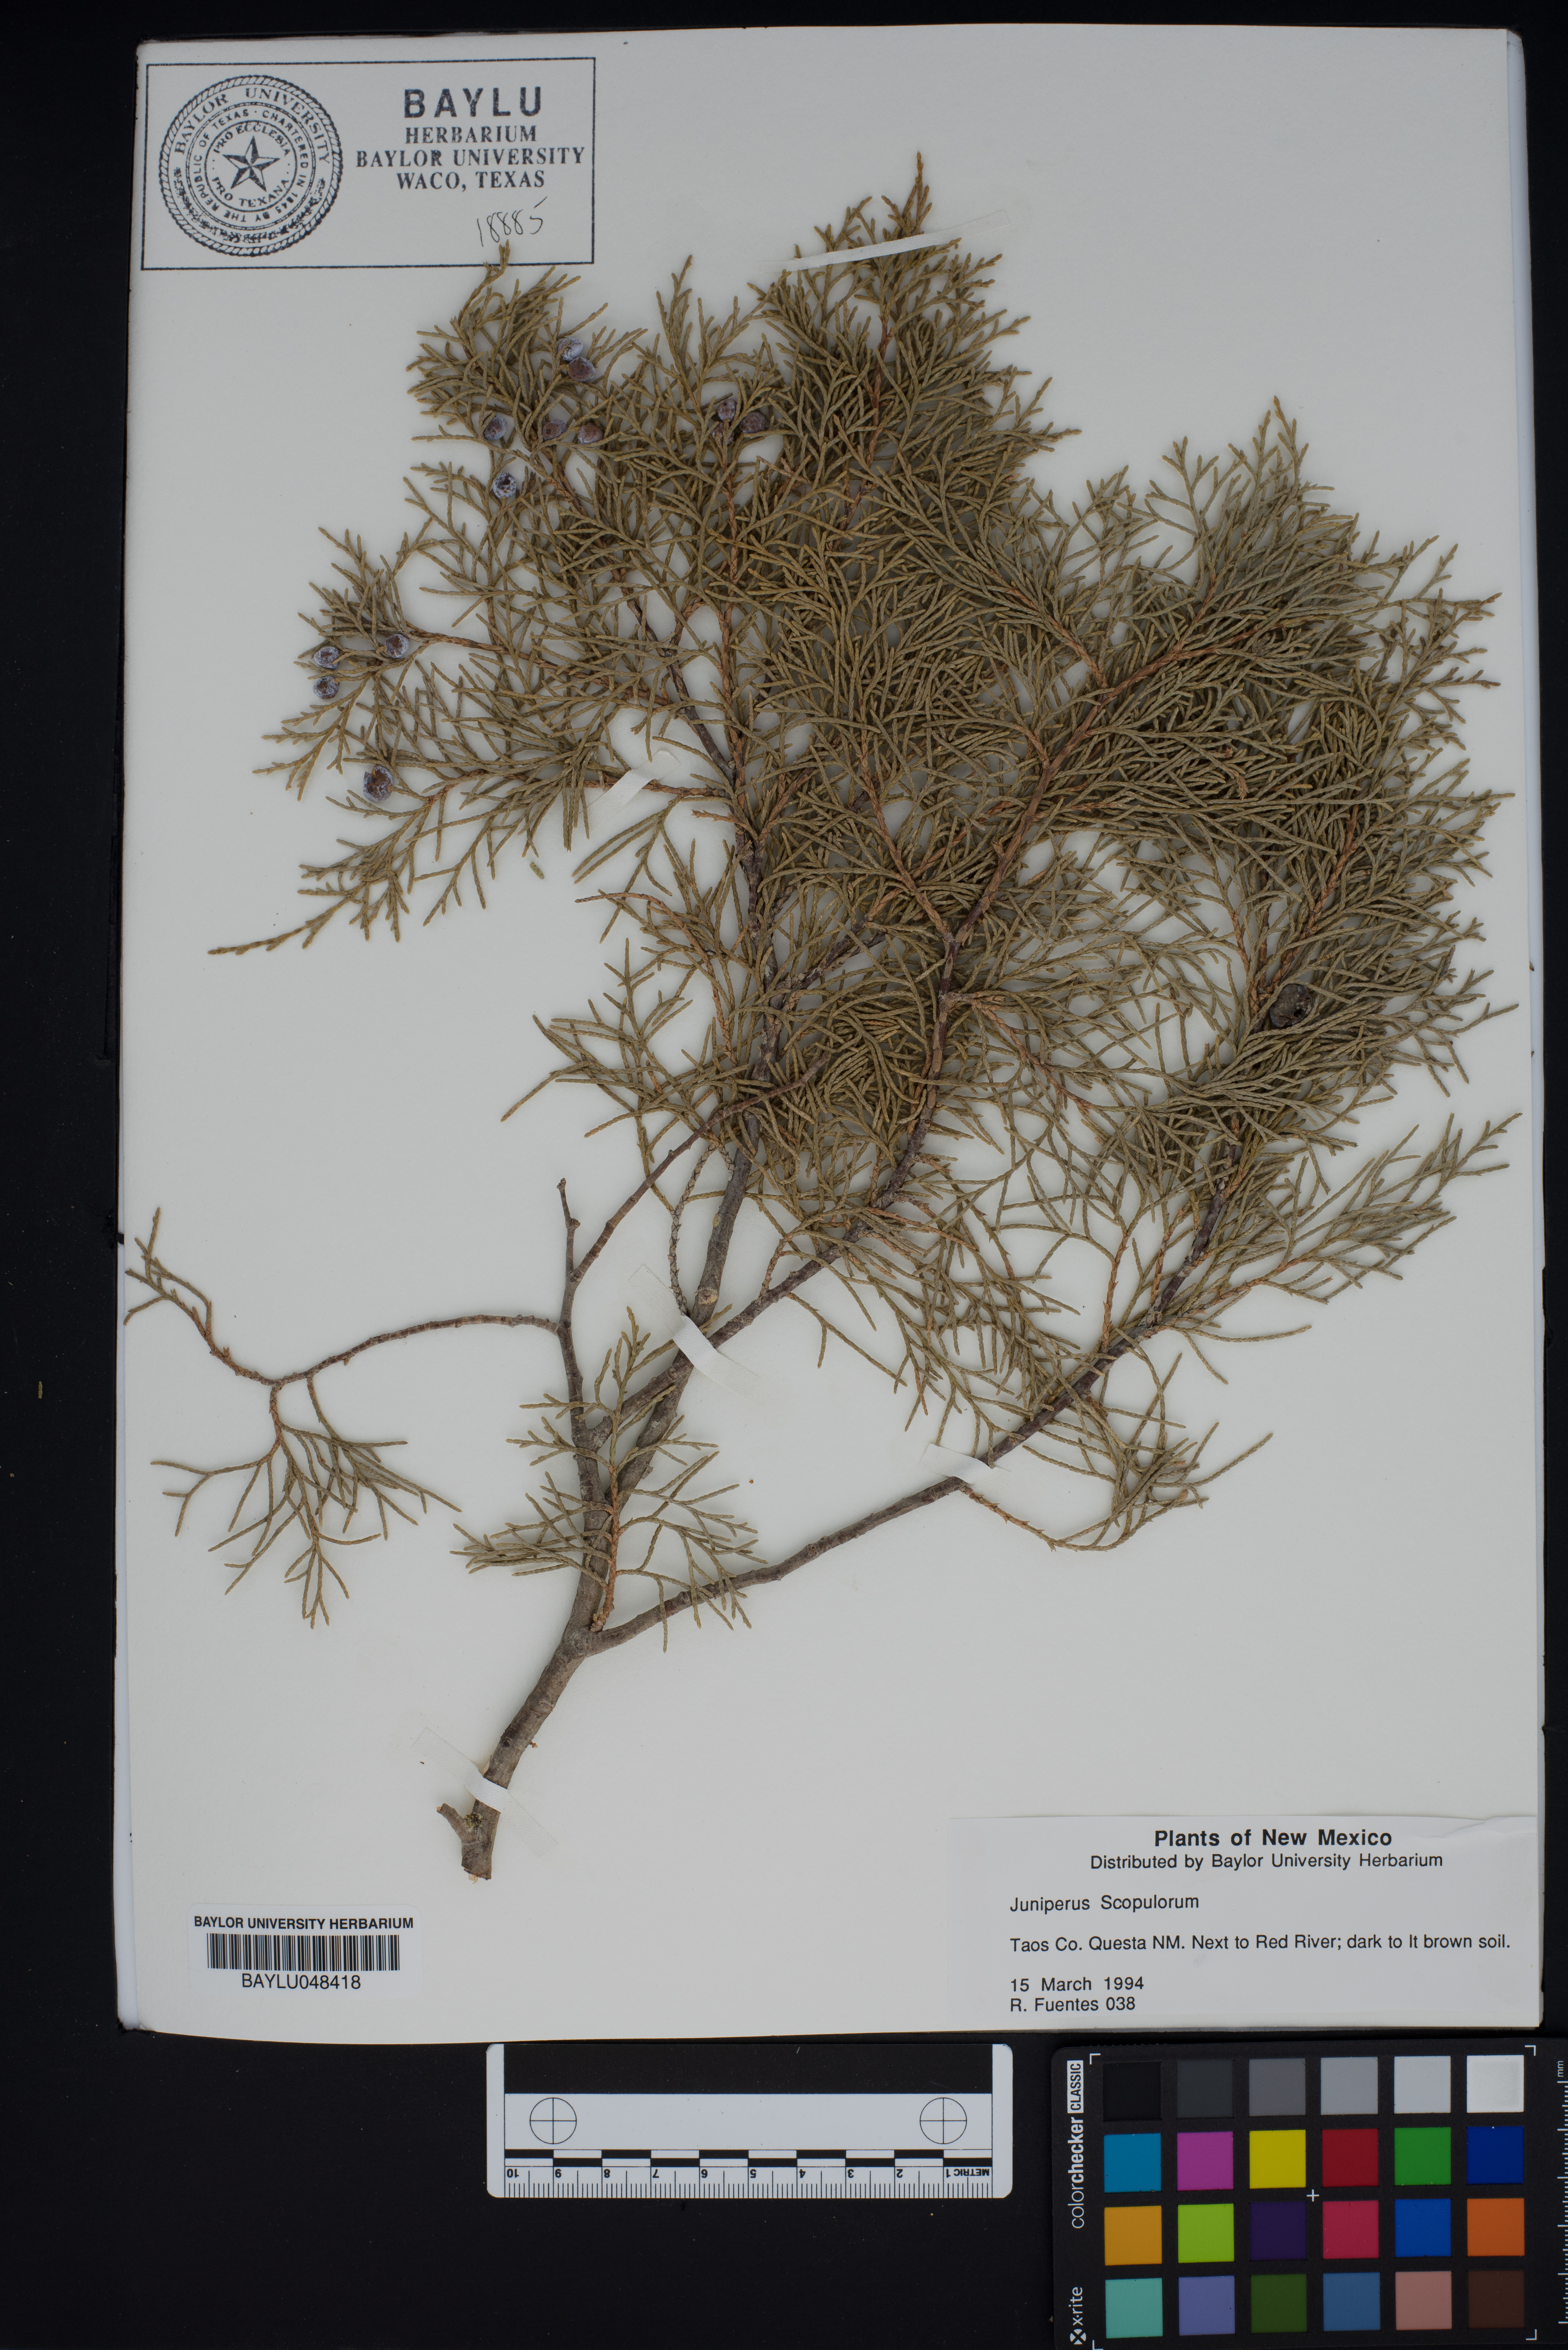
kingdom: Plantae
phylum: Tracheophyta
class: Pinopsida
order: Pinales
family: Cupressaceae
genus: Juniperus
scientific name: Juniperus scopulorum
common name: Rocky mountain juniper
